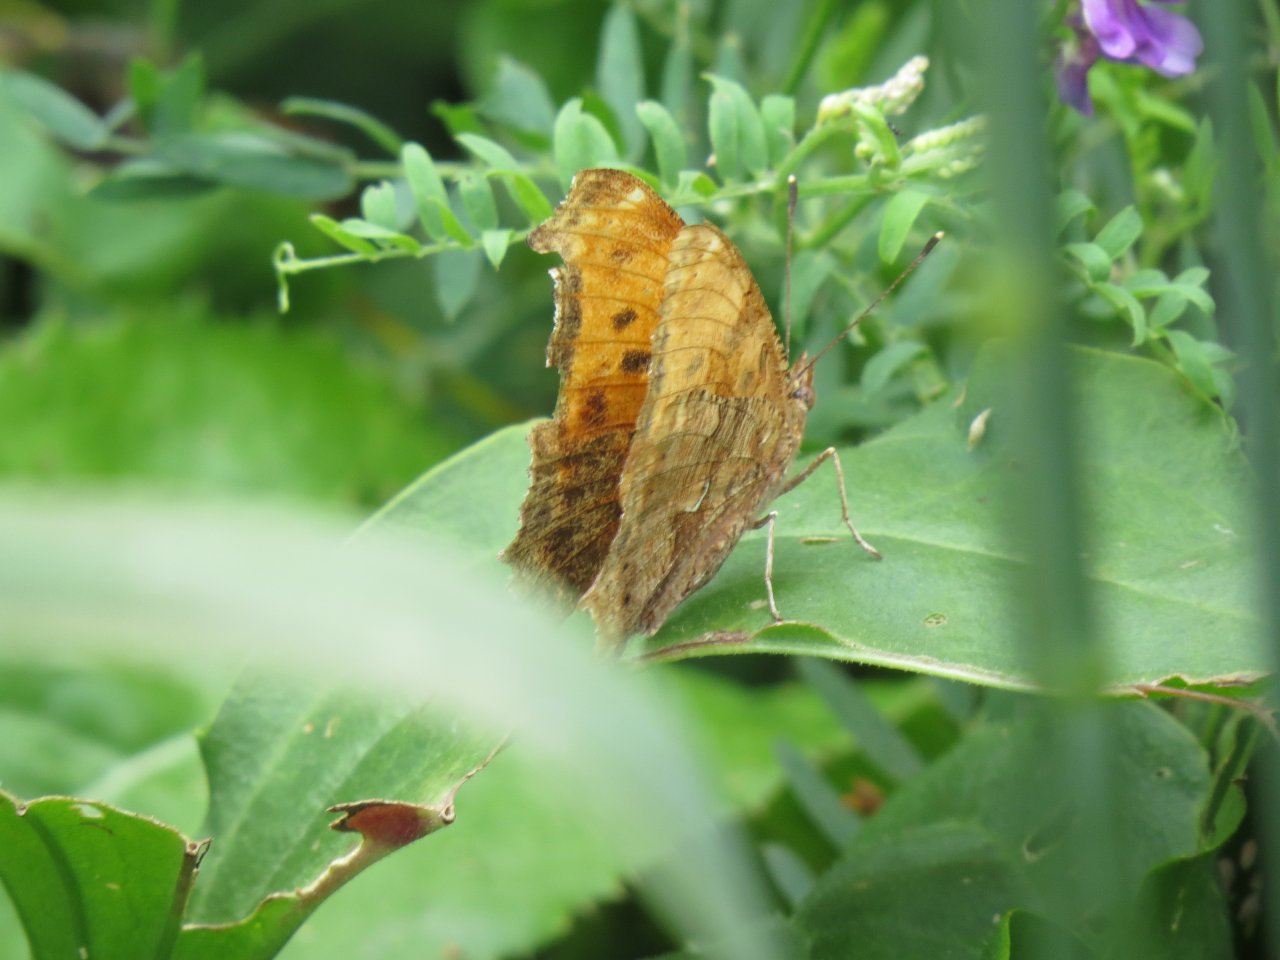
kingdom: Animalia
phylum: Arthropoda
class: Insecta
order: Lepidoptera
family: Nymphalidae
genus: Polygonia
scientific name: Polygonia comma
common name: Eastern Comma
